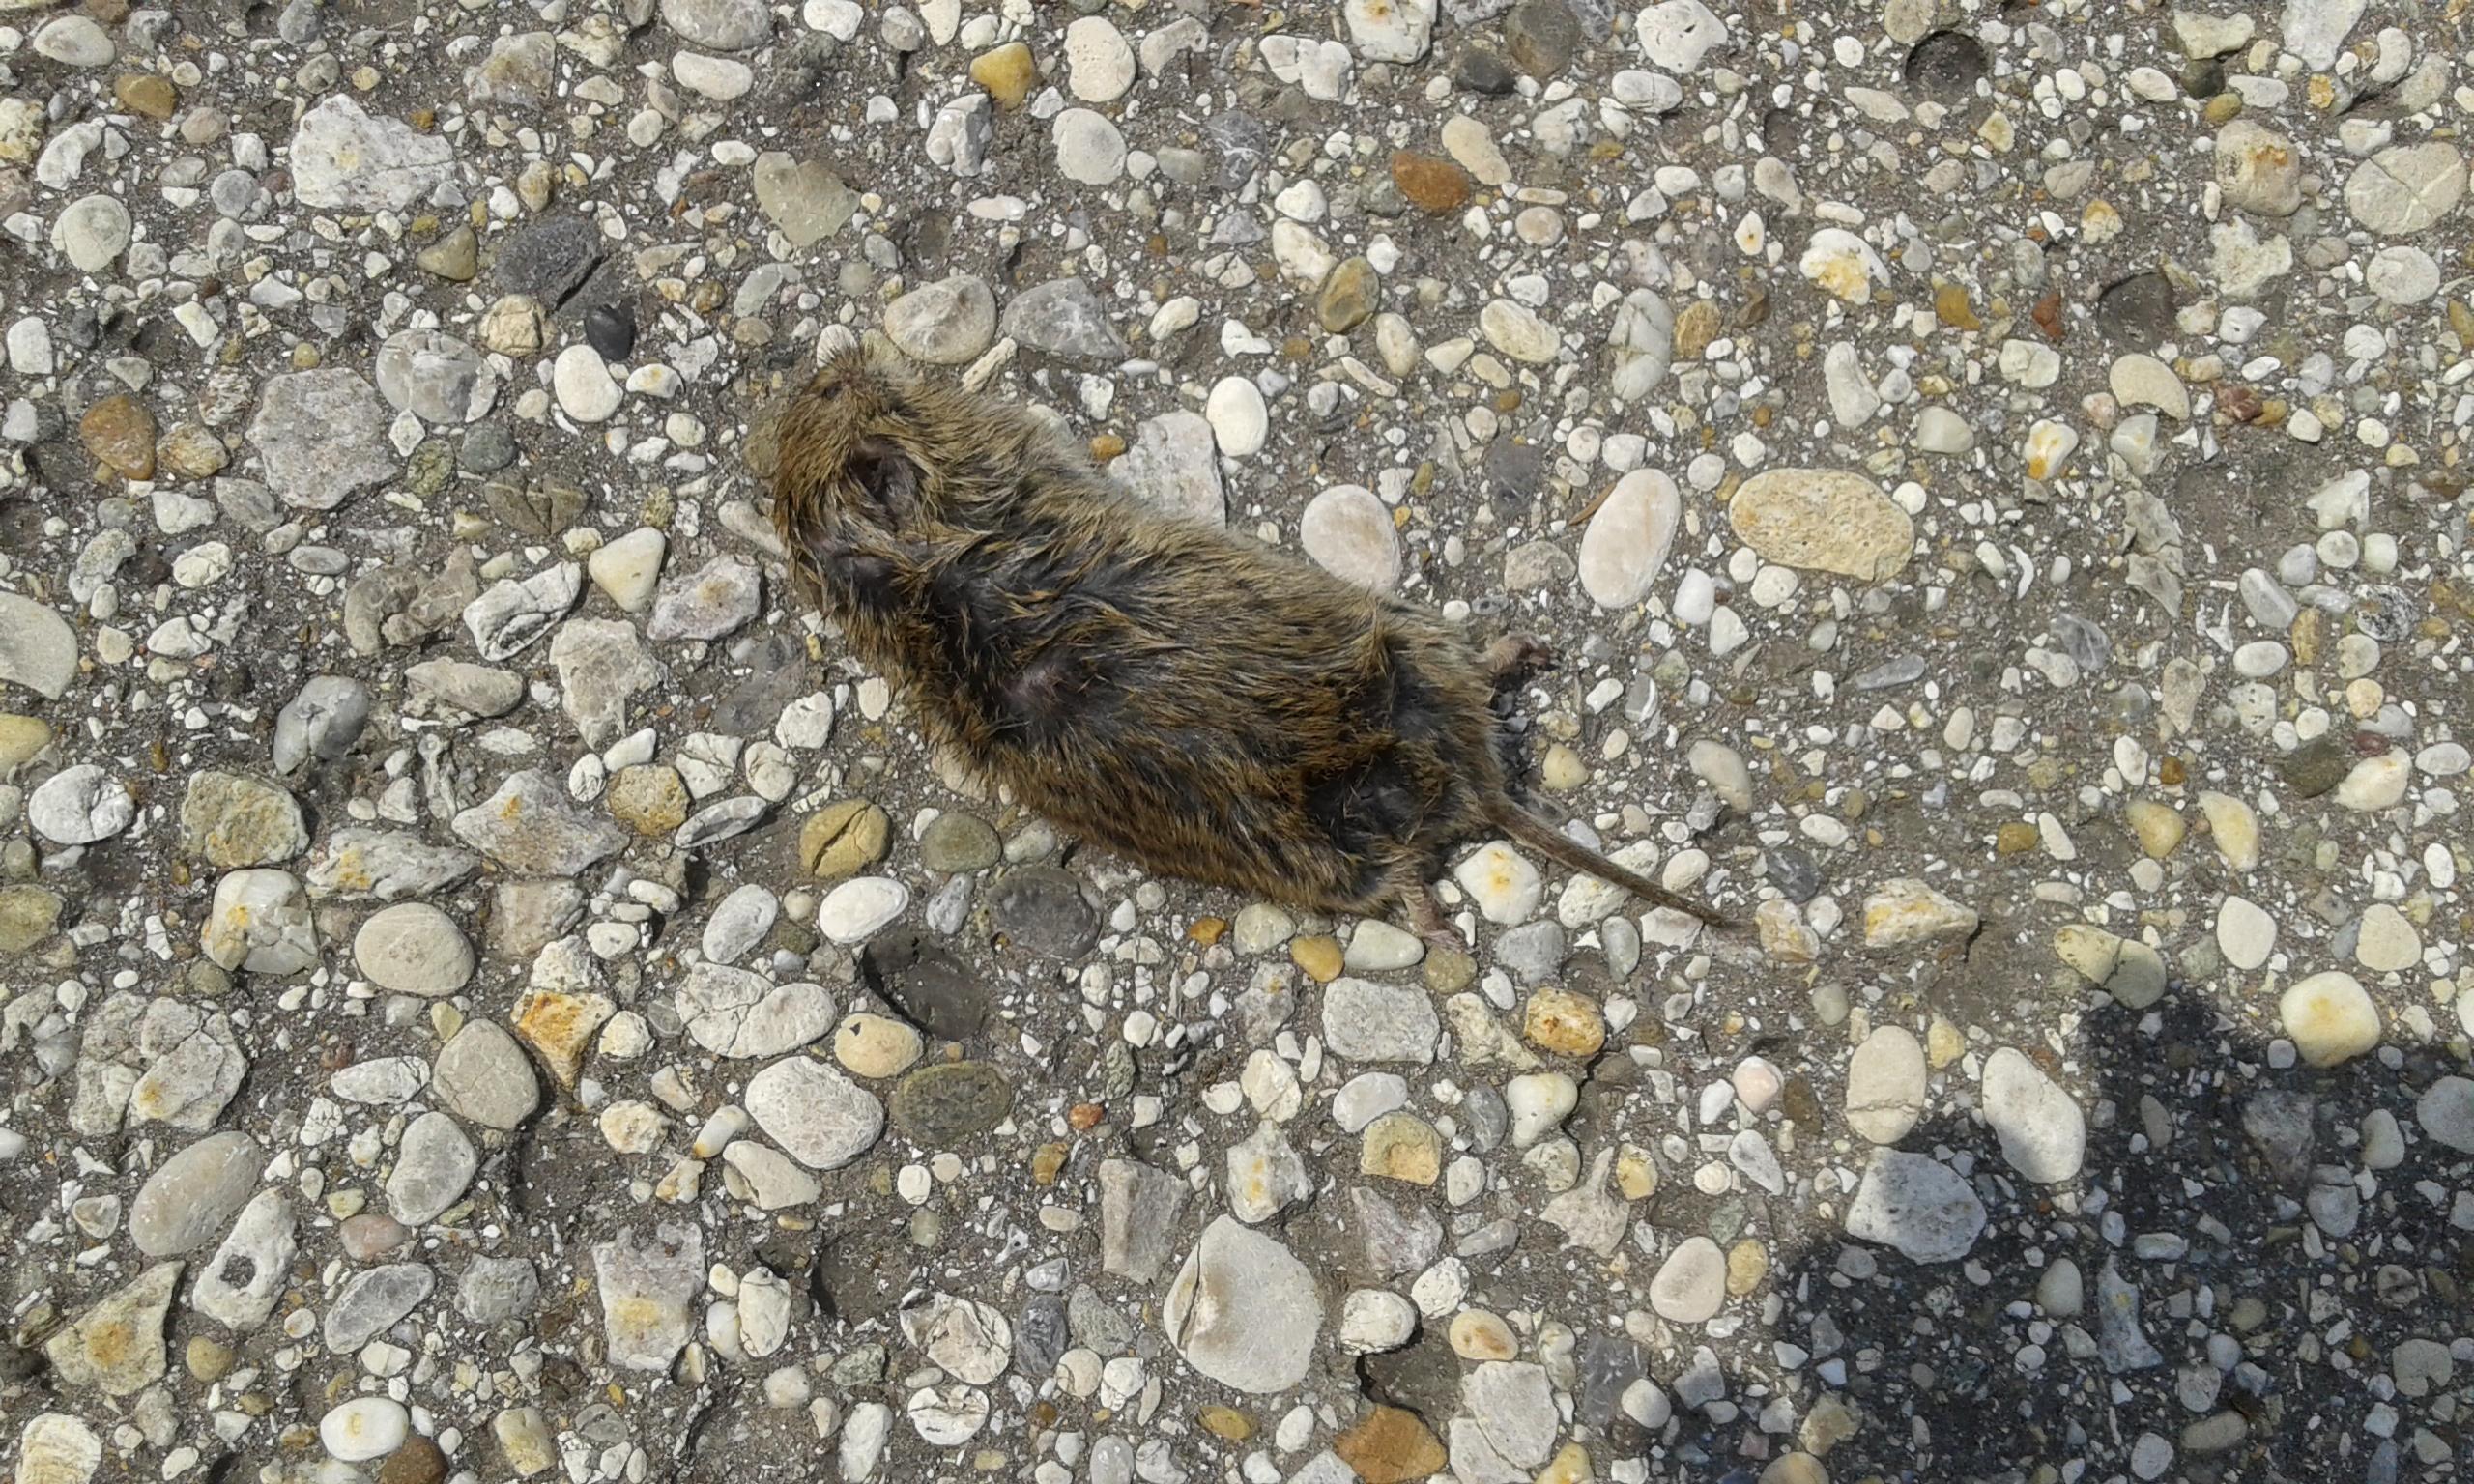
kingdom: Animalia
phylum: Chordata
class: Mammalia
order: Rodentia
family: Cricetidae
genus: Microtus
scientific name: Microtus
